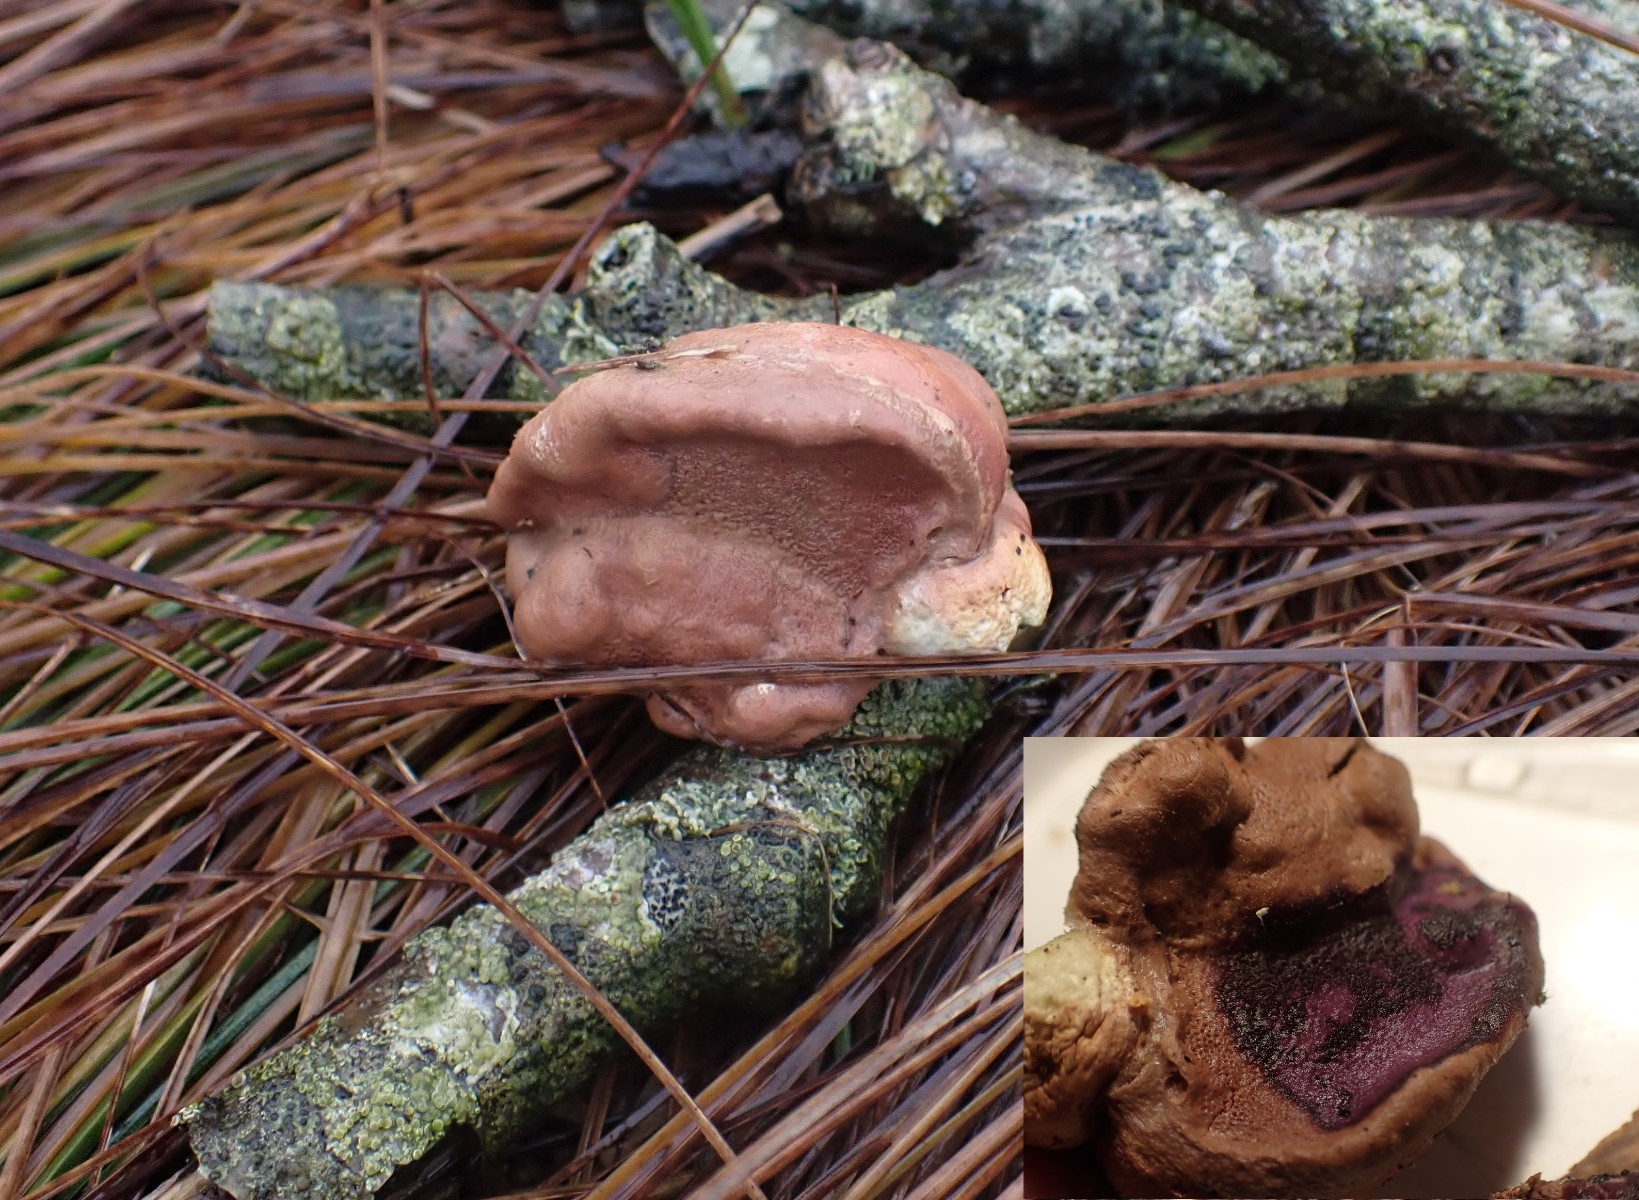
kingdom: Fungi
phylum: Basidiomycota
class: Agaricomycetes
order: Polyporales
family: Phanerochaetaceae
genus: Hapalopilus
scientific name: Hapalopilus rutilans
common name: rødlig okkerporesvamp
